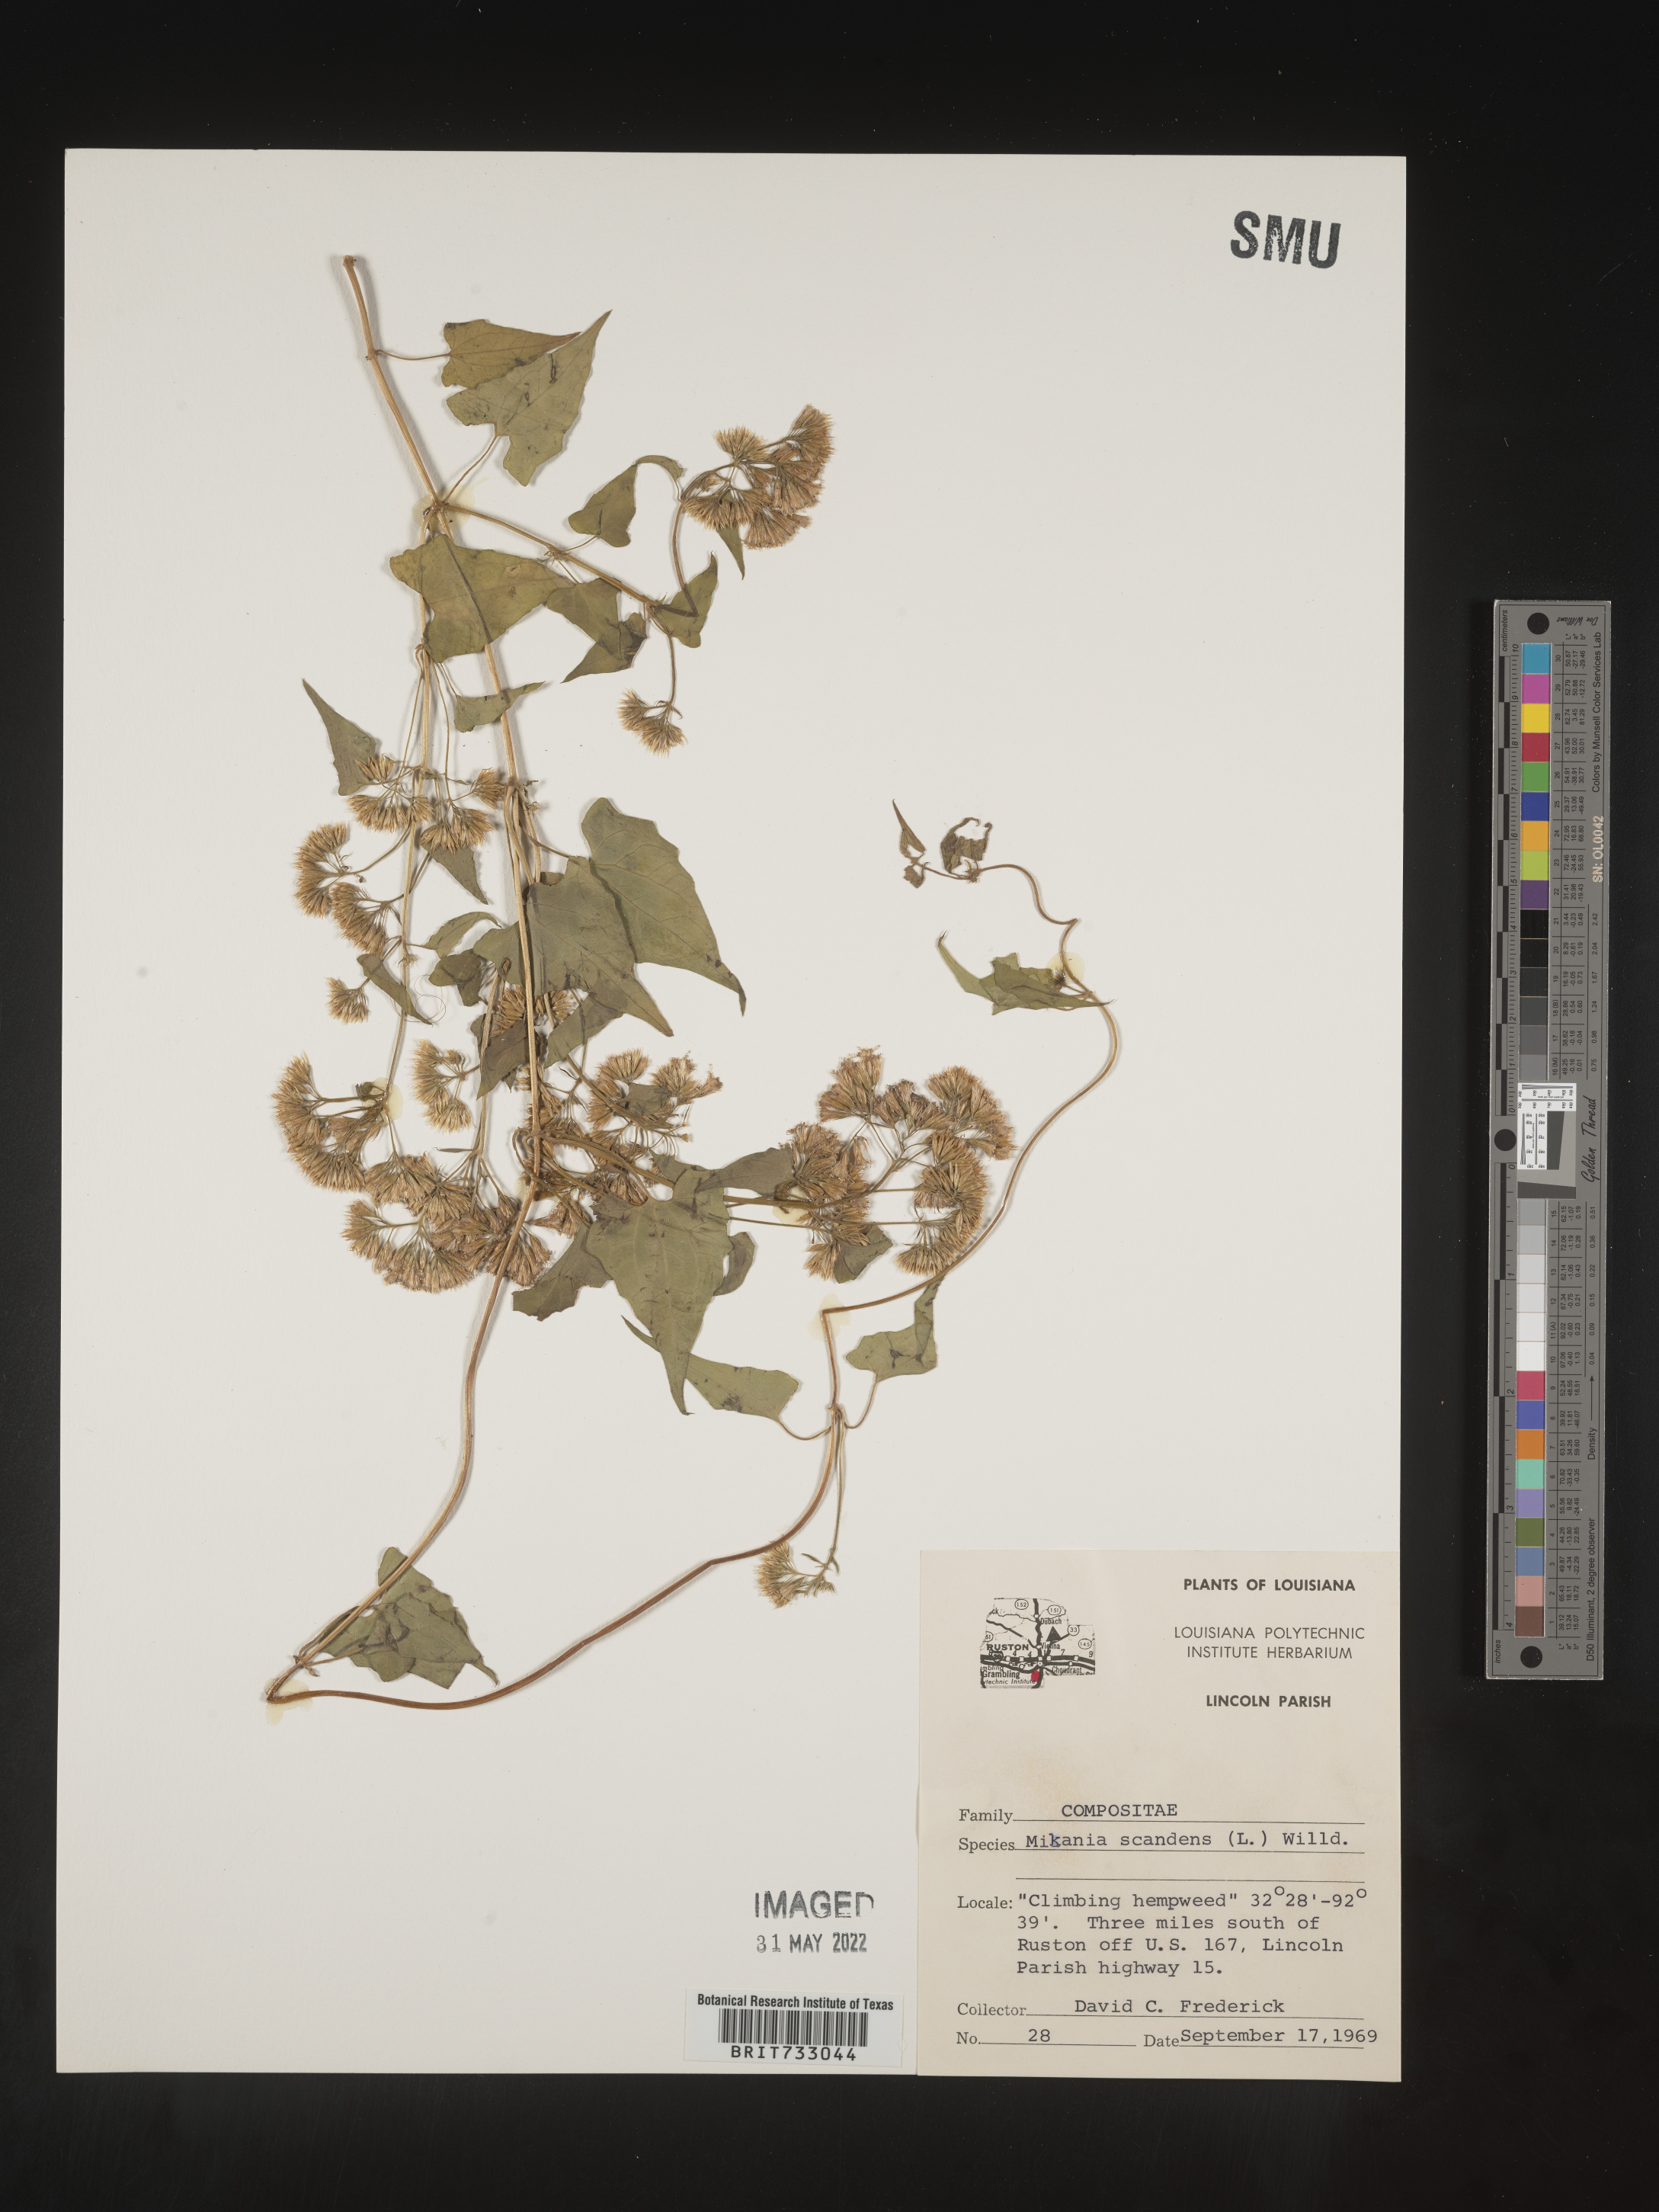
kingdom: Plantae
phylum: Tracheophyta
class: Magnoliopsida
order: Asterales
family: Asteraceae
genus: Mikania
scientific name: Mikania scandens
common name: Climbing hempvine
